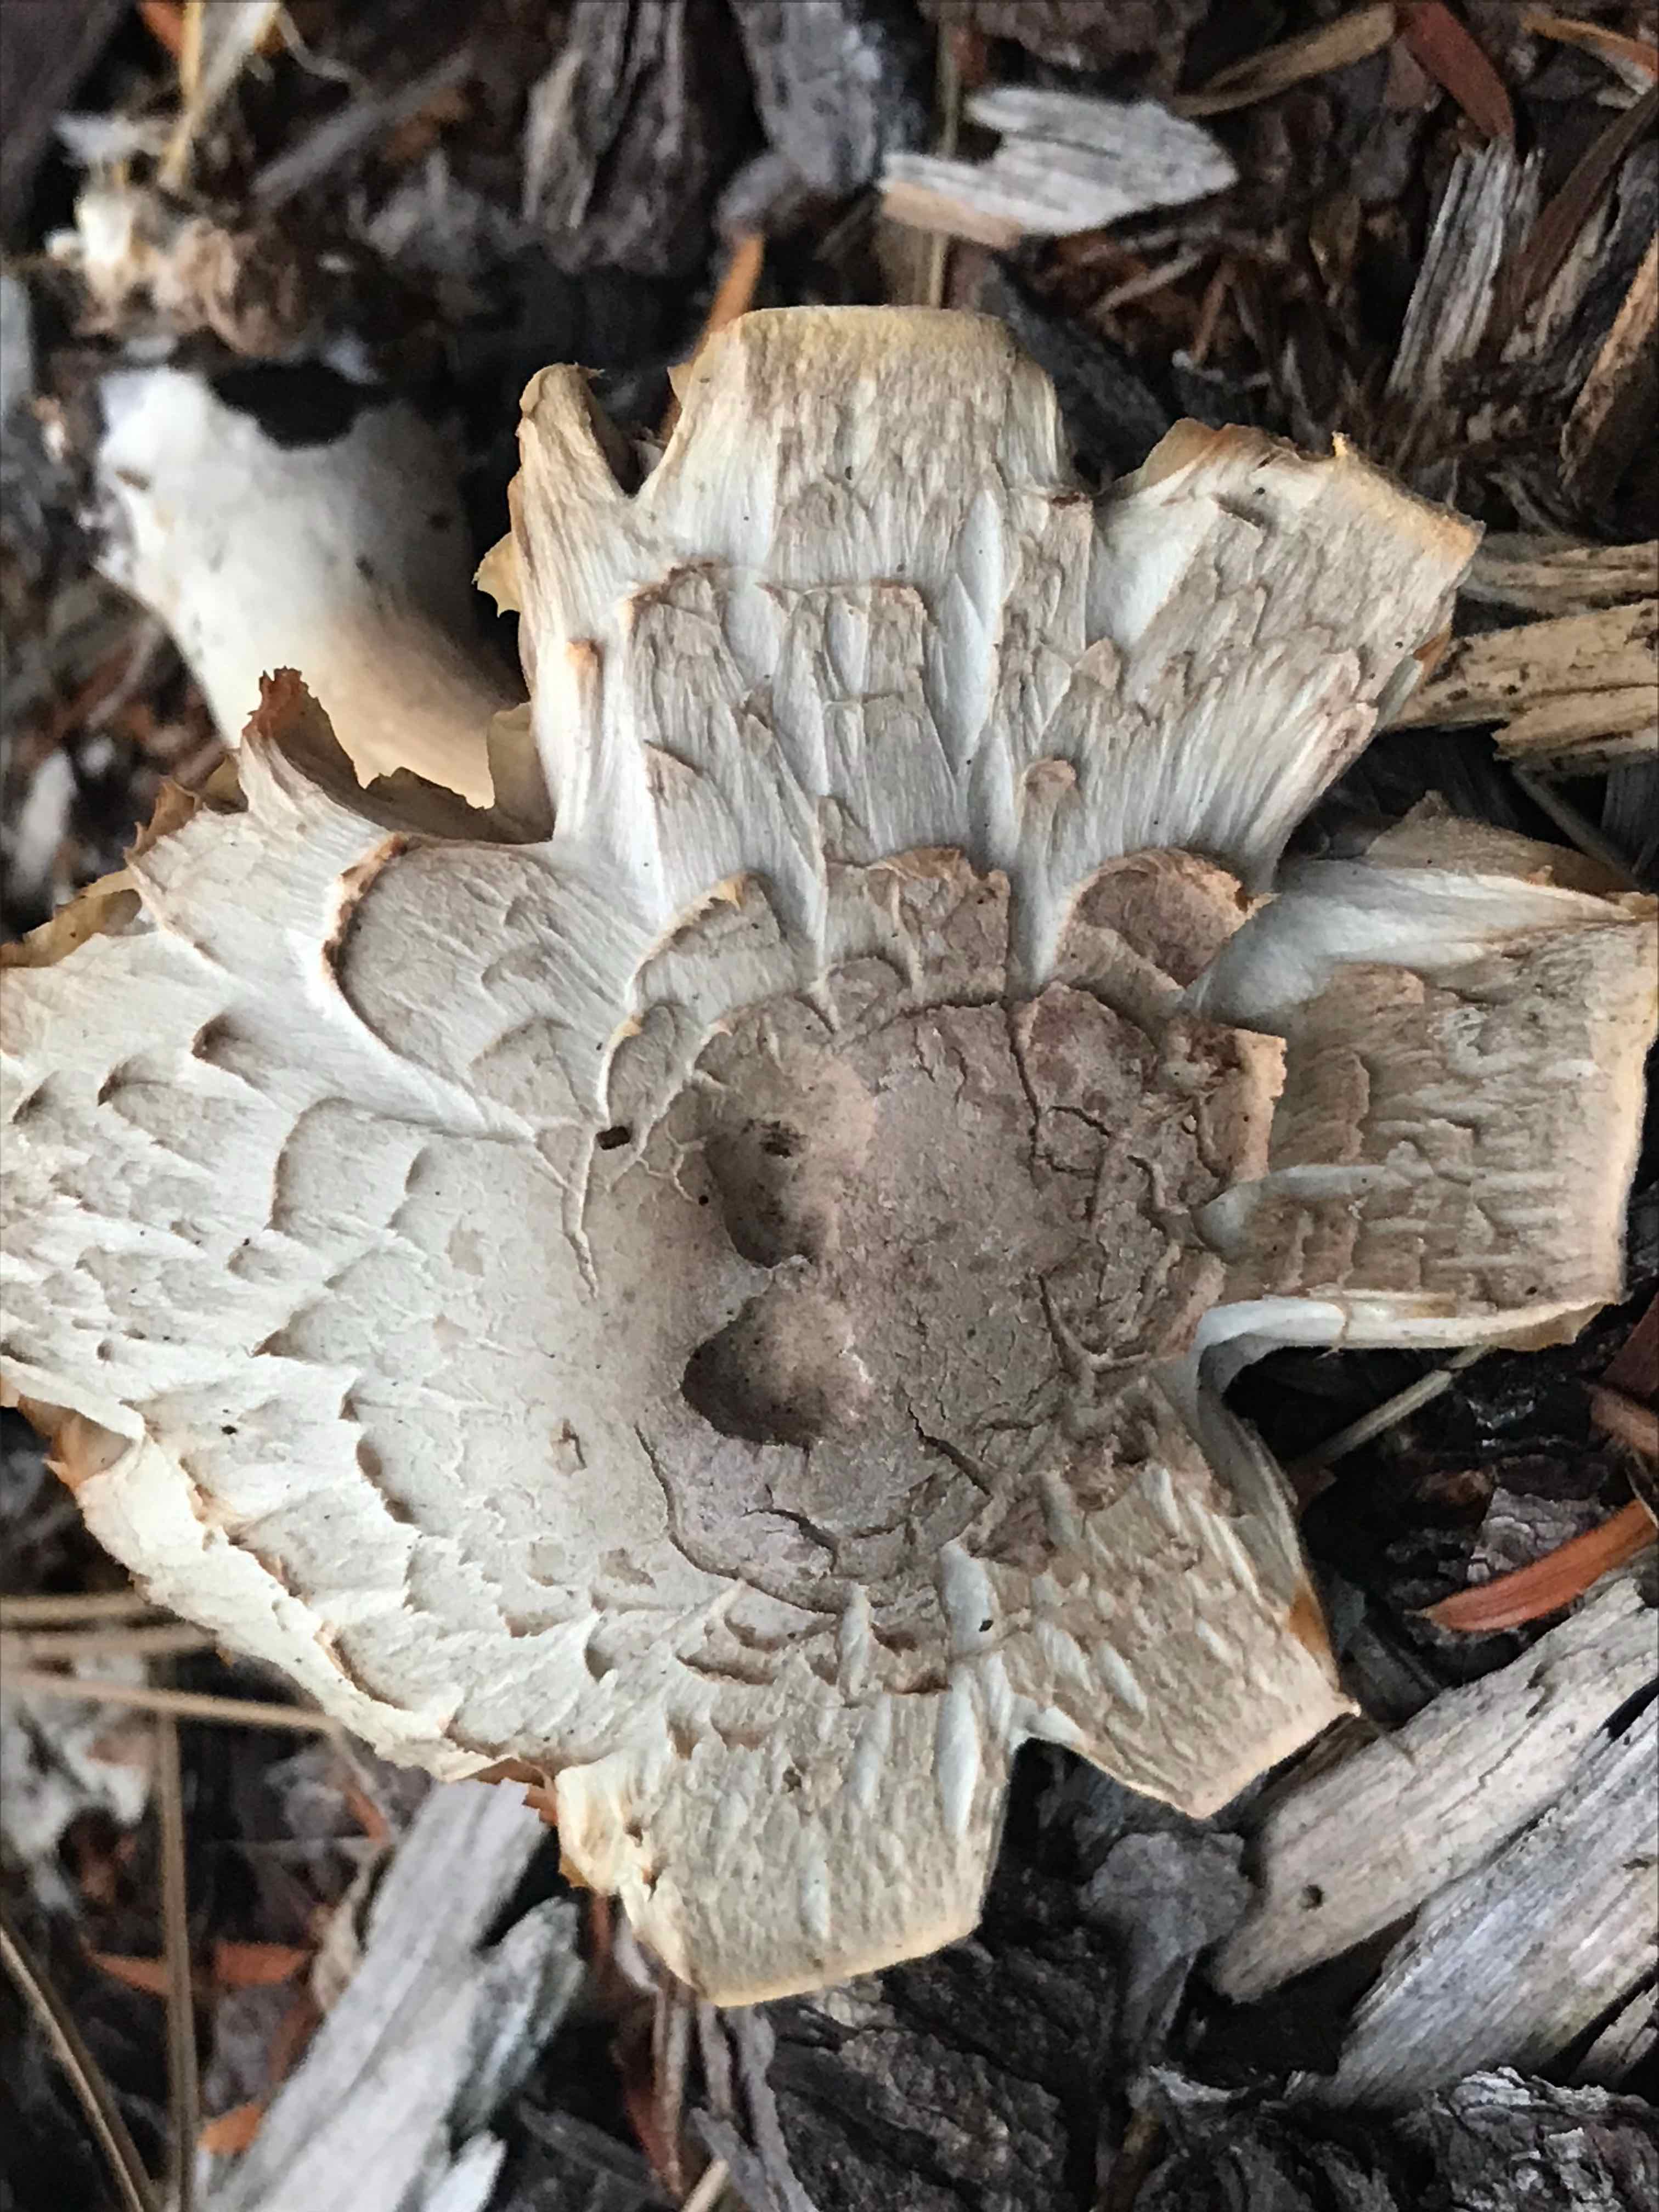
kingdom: Fungi
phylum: Basidiomycota
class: Agaricomycetes
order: Agaricales
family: Agaricaceae
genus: Agaricus
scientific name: Agaricus xanthodermus
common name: karbol-champignon
